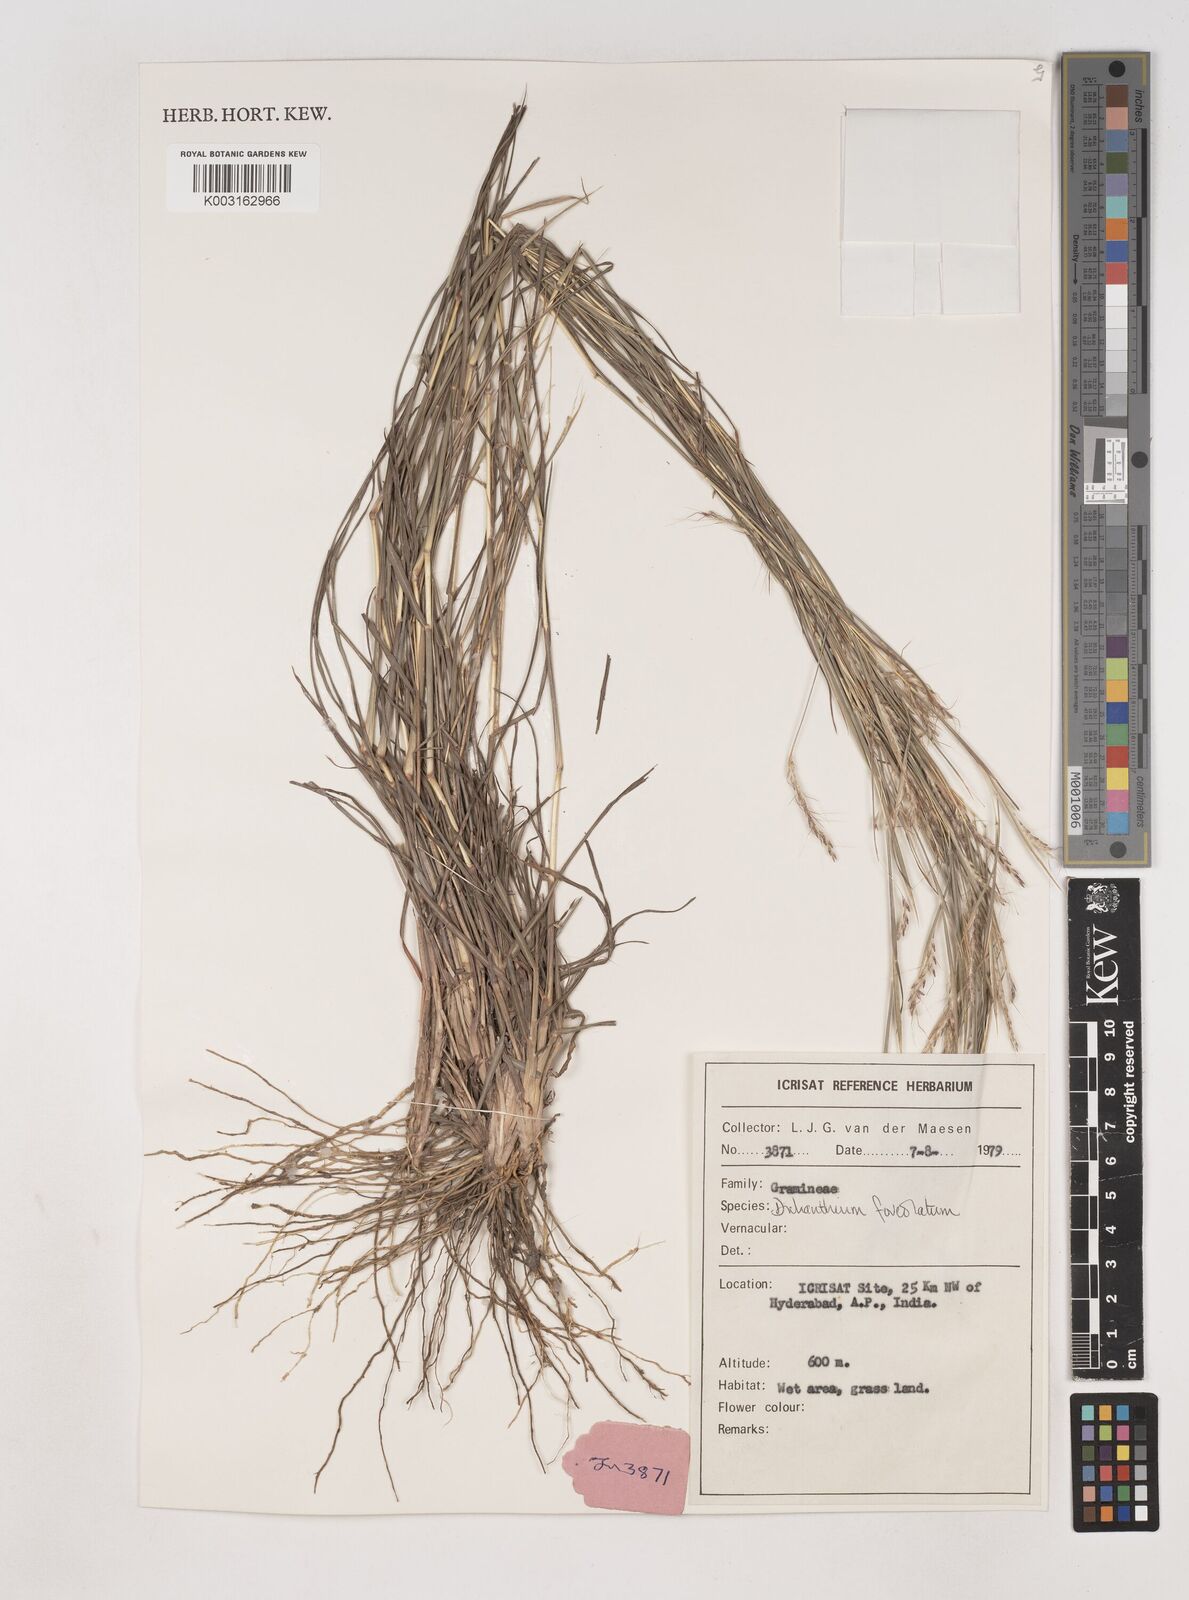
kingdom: Plantae
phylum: Tracheophyta
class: Liliopsida
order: Poales
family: Poaceae
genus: Dichanthium
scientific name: Dichanthium foveolatum
